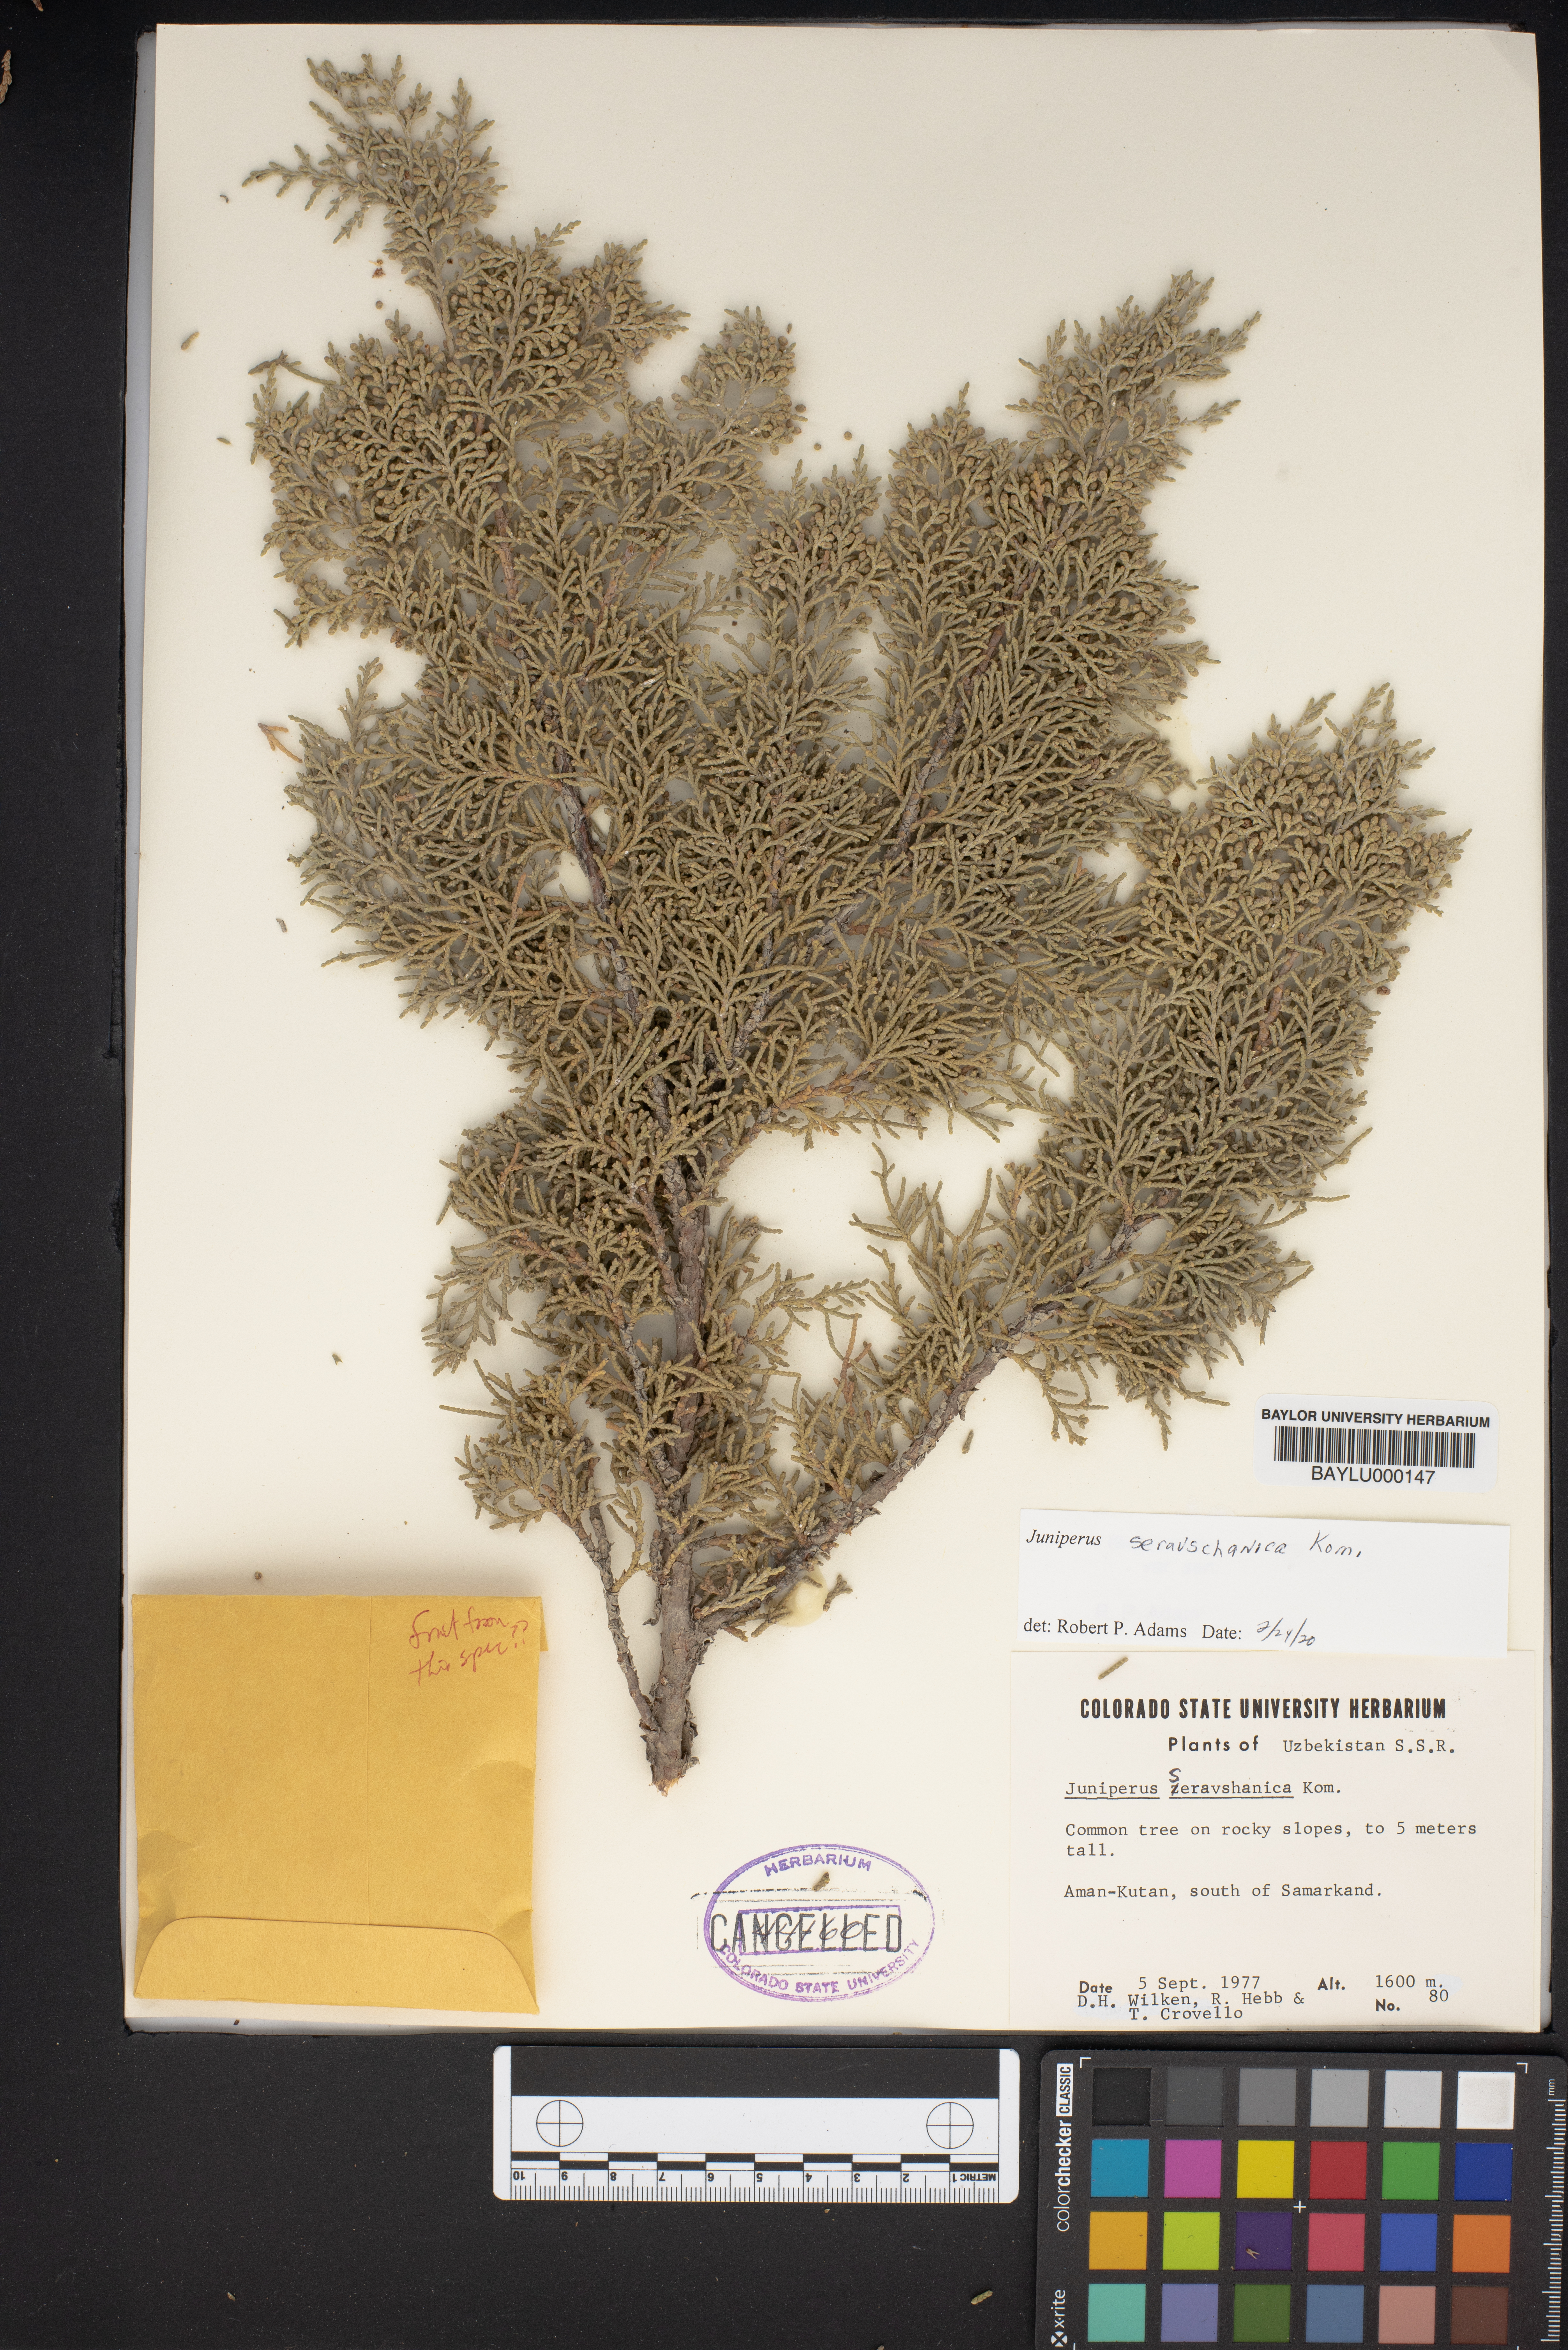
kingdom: Plantae
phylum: Tracheophyta
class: Pinopsida
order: Pinales
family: Cupressaceae
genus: Juniperus
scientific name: Juniperus excelsa
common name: Crimean juniper
